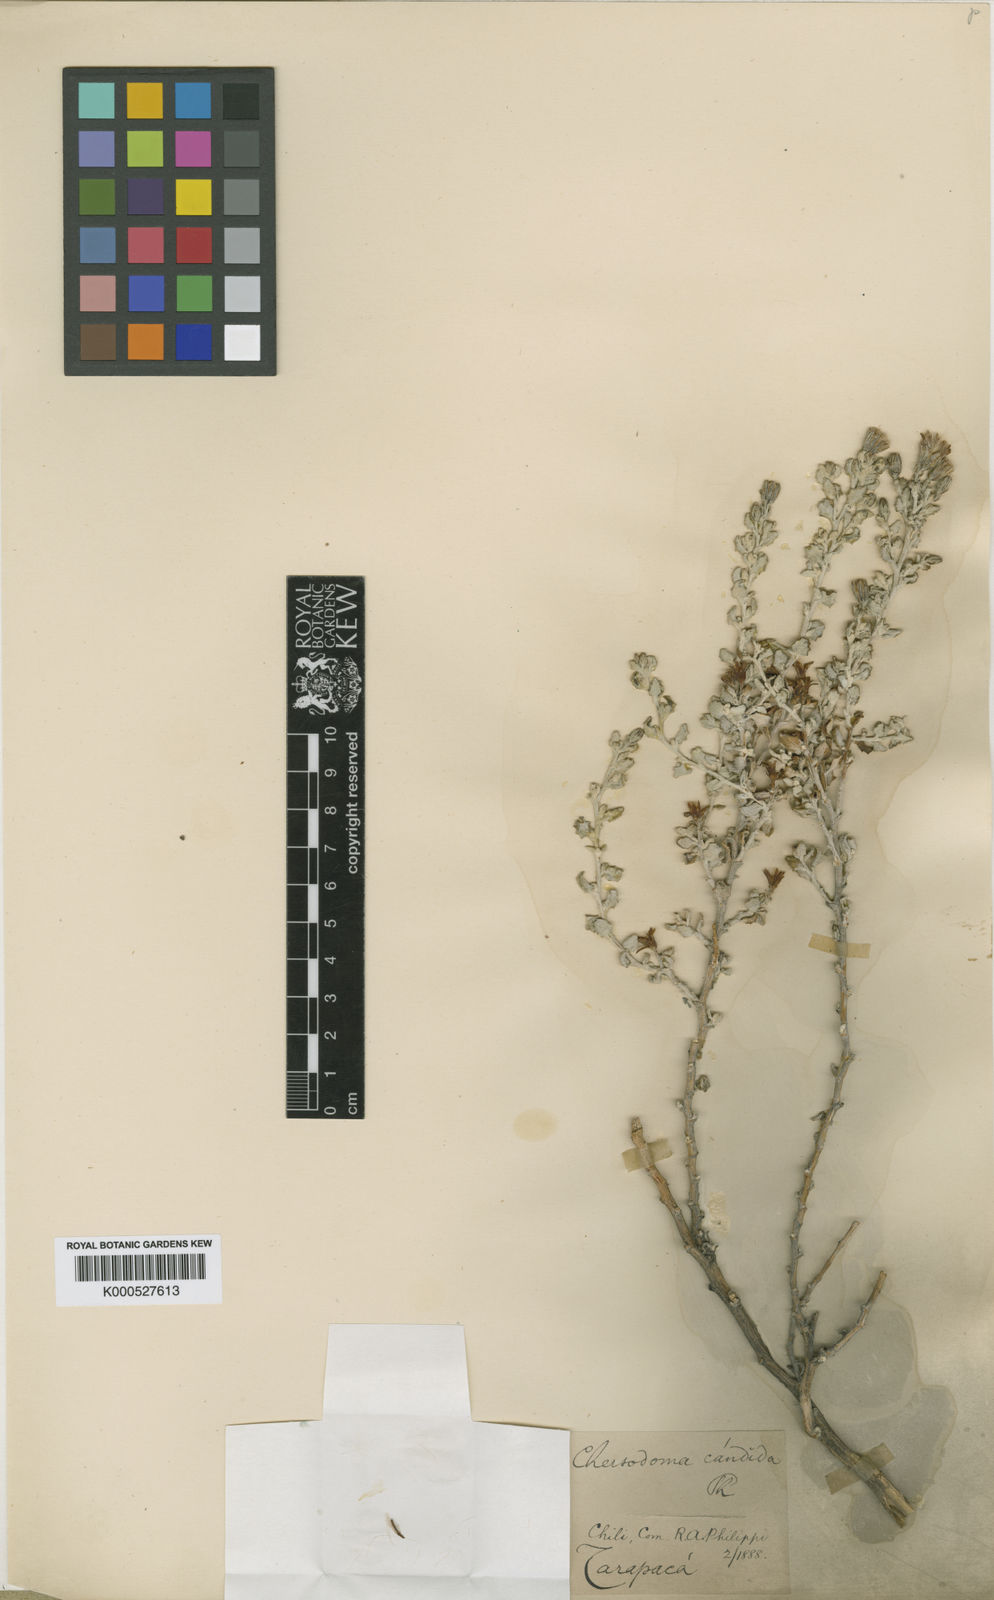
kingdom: Plantae
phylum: Tracheophyta
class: Magnoliopsida
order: Asterales
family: Asteraceae
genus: Chersodoma
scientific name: Chersodoma candida
